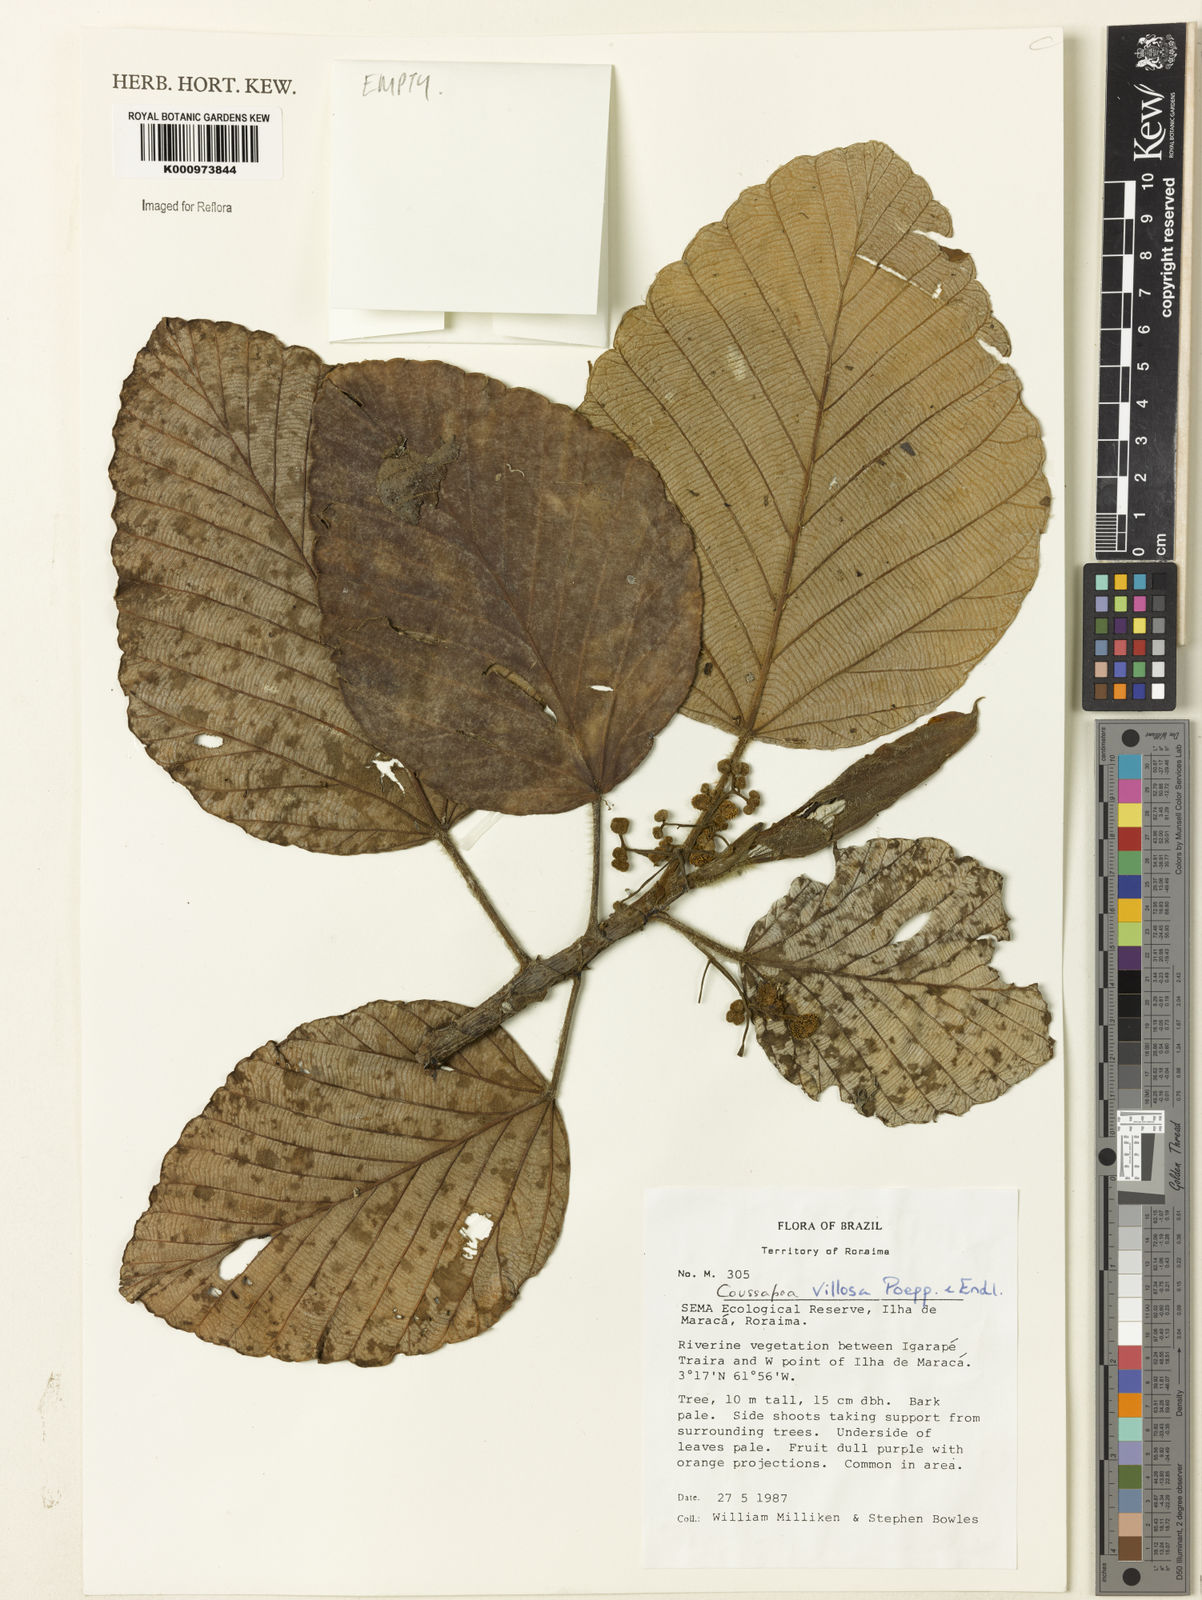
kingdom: Plantae
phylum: Tracheophyta
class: Magnoliopsida
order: Rosales
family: Urticaceae
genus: Coussapoa
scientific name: Coussapoa villosa
